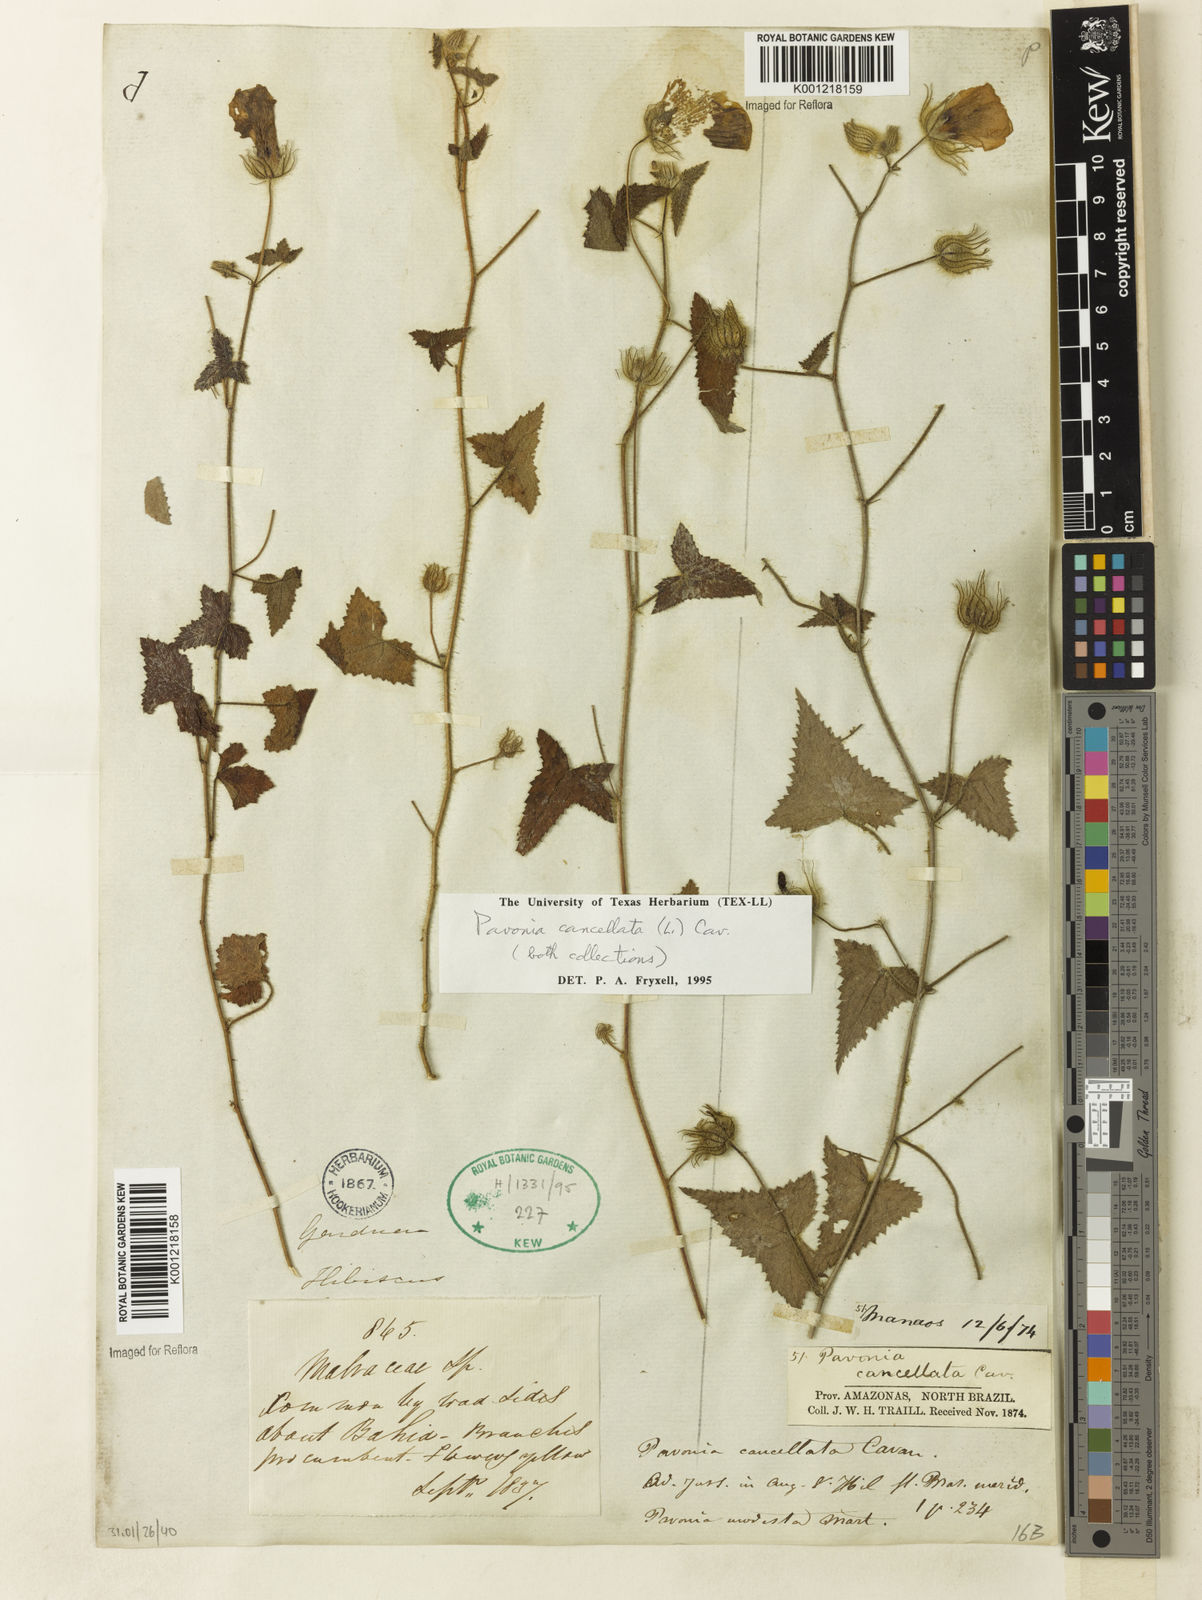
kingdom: Plantae
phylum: Tracheophyta
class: Magnoliopsida
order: Malvales
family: Malvaceae
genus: Pavonia
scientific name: Pavonia cancellata
